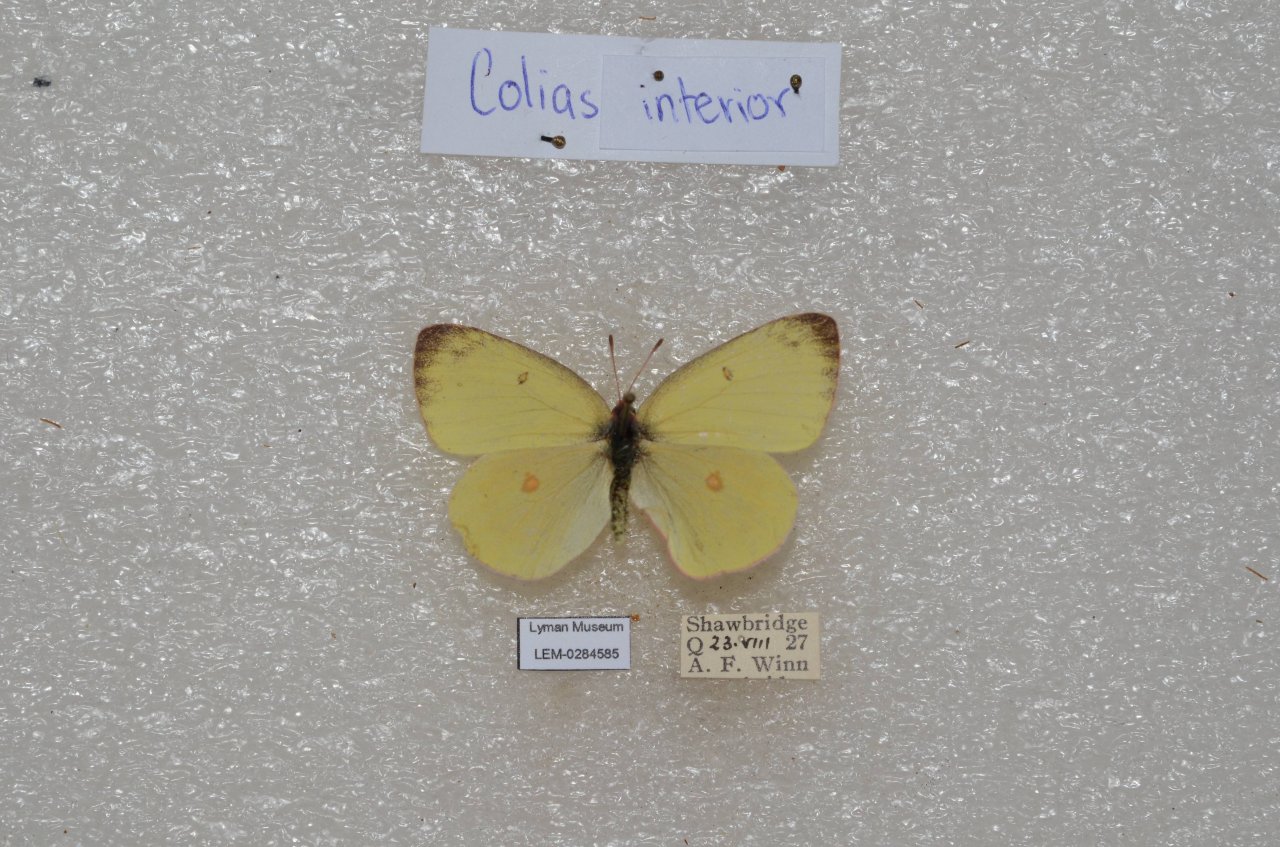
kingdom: Animalia
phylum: Arthropoda
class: Insecta
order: Lepidoptera
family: Pieridae
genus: Colias
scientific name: Colias interior
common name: Pink-edged Sulphur
